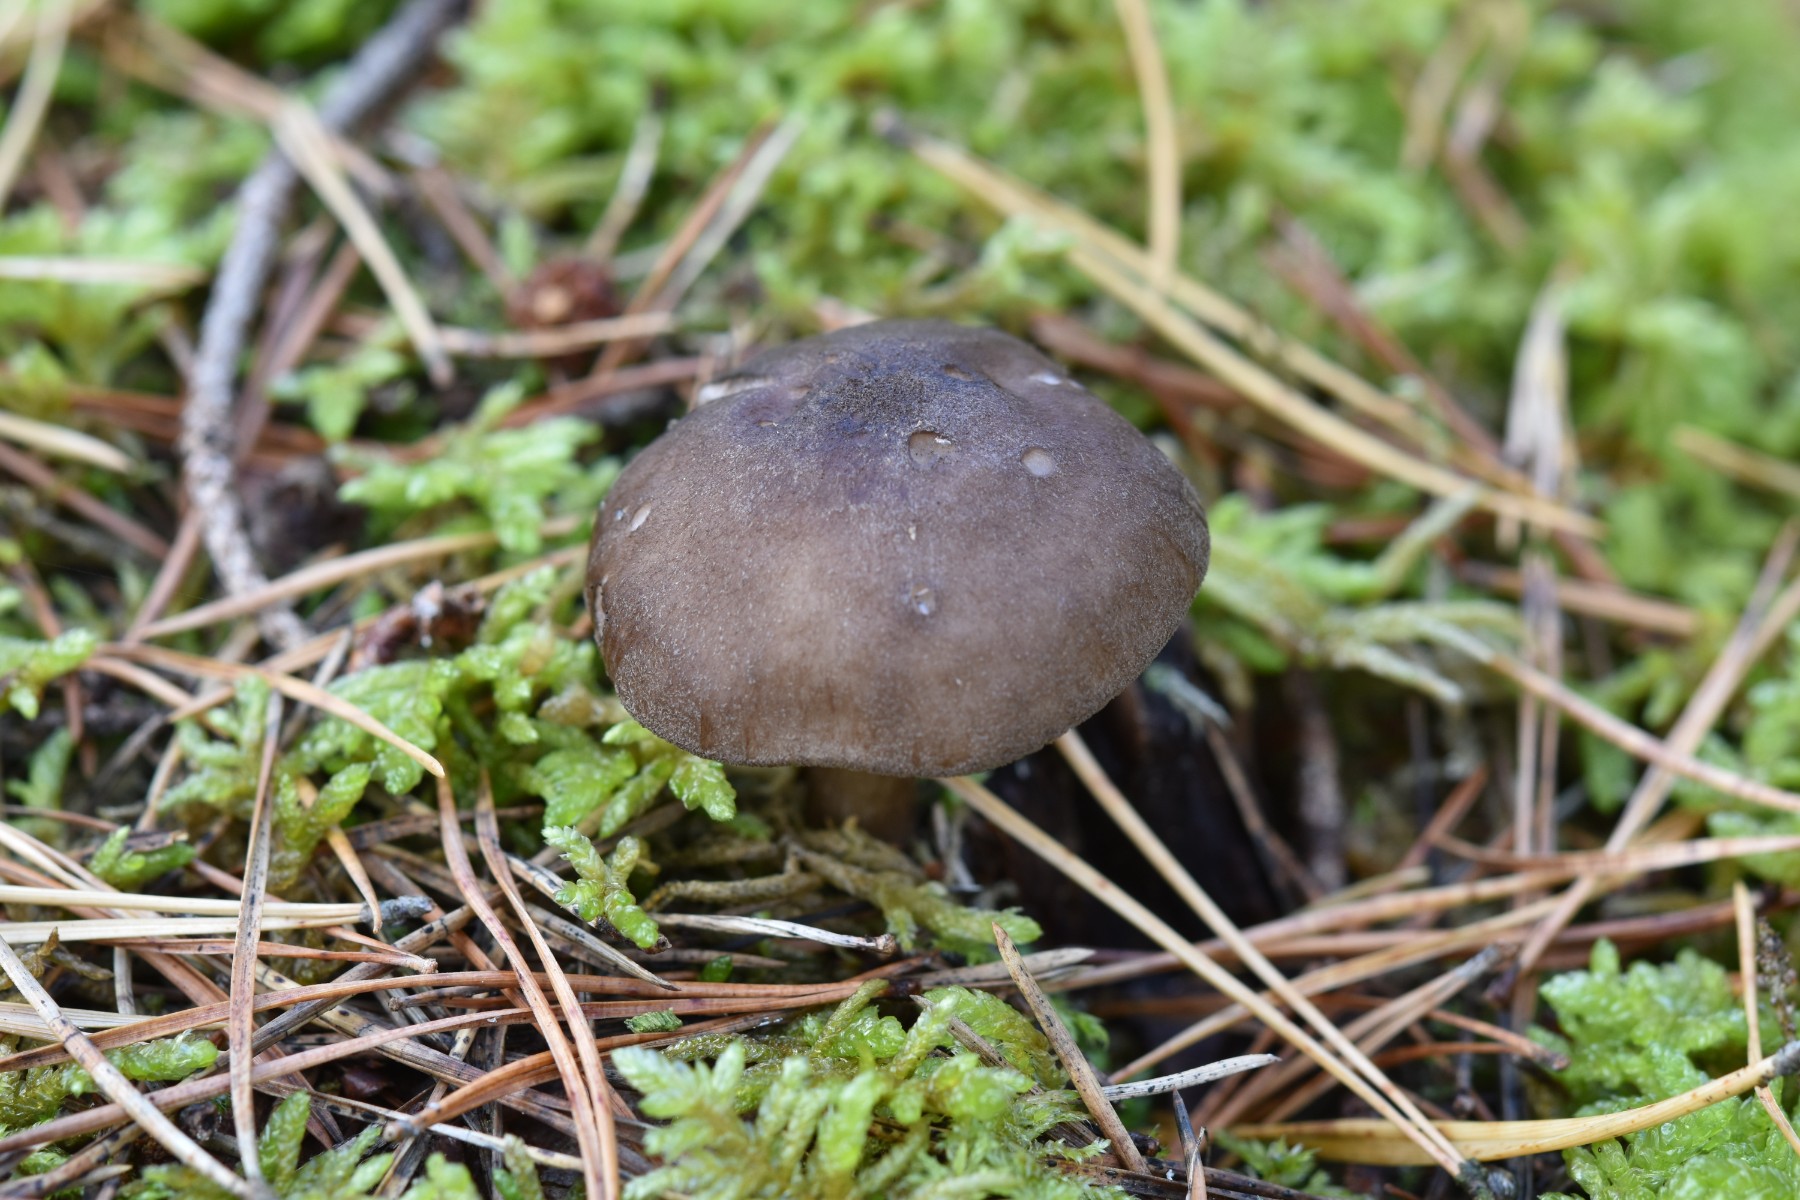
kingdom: Fungi
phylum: Basidiomycota
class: Agaricomycetes
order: Agaricales
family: Pluteaceae
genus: Pluteus
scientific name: Pluteus atromarginatus
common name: sortrandet skærmhat
